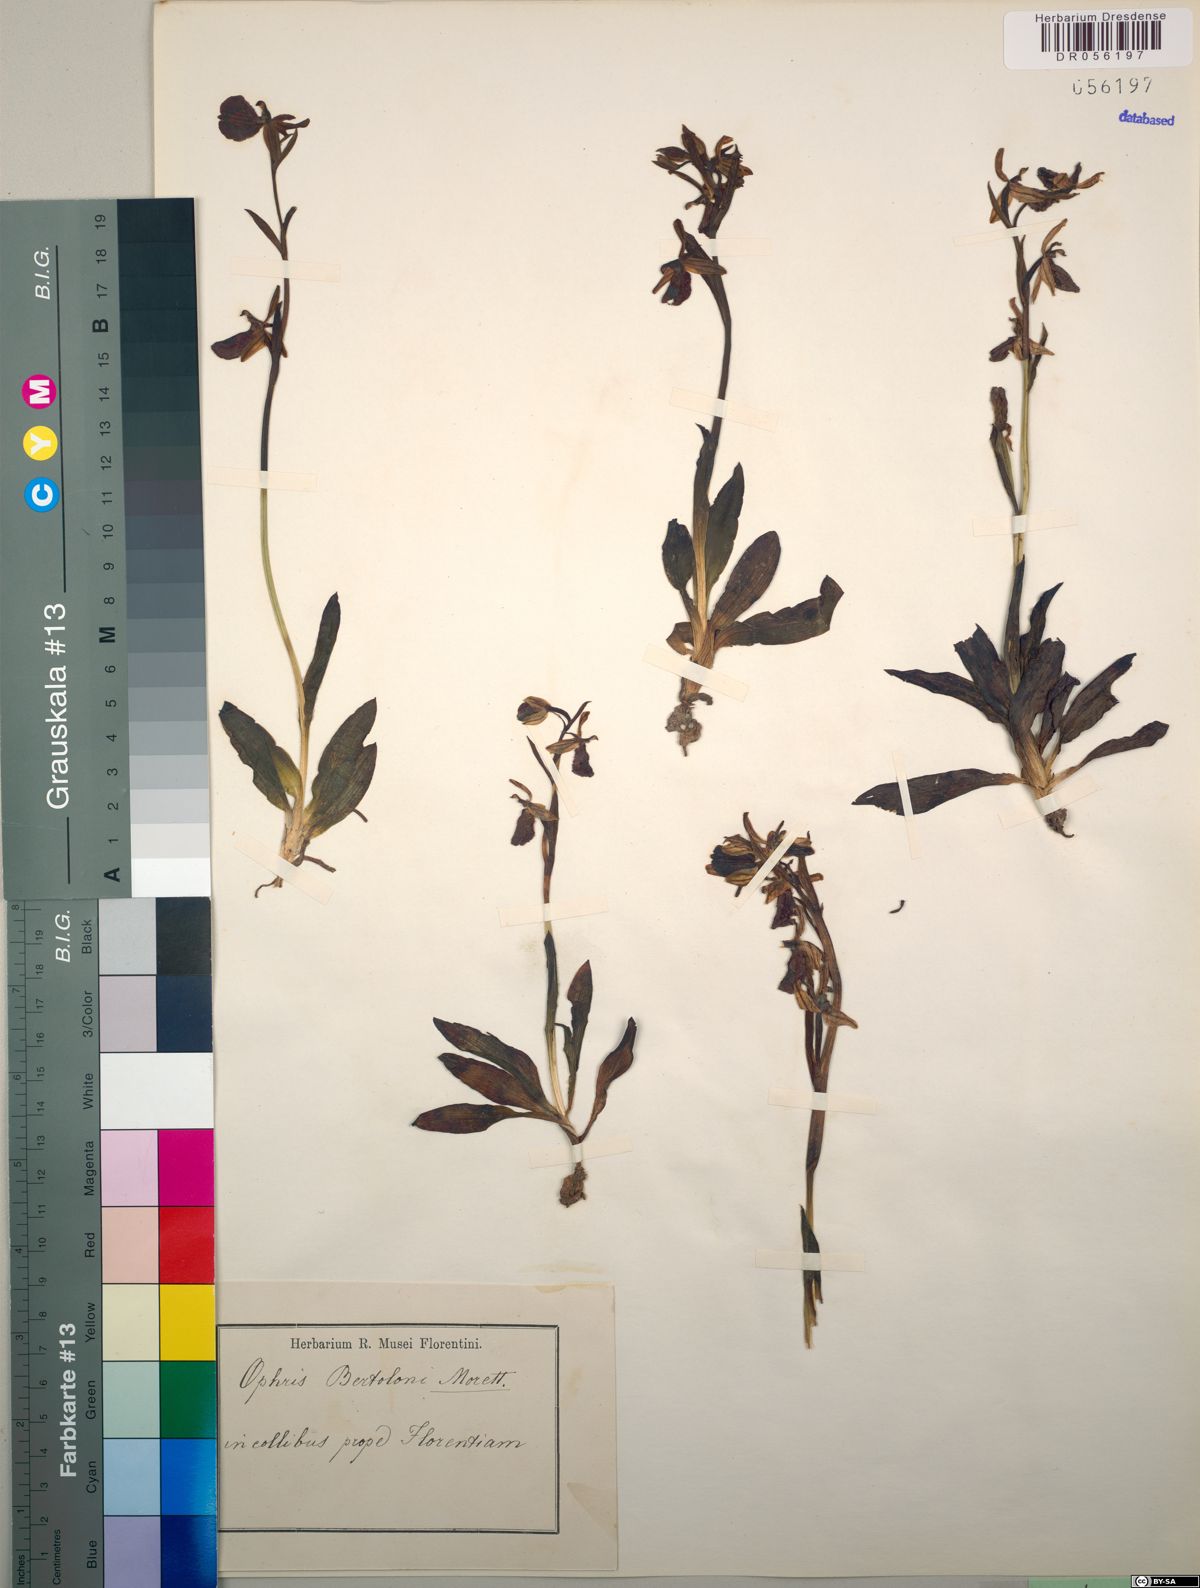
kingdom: Plantae
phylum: Tracheophyta
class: Liliopsida
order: Asparagales
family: Orchidaceae
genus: Ophrys
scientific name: Ophrys bertolonii
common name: Bertoloni's bee orchid
